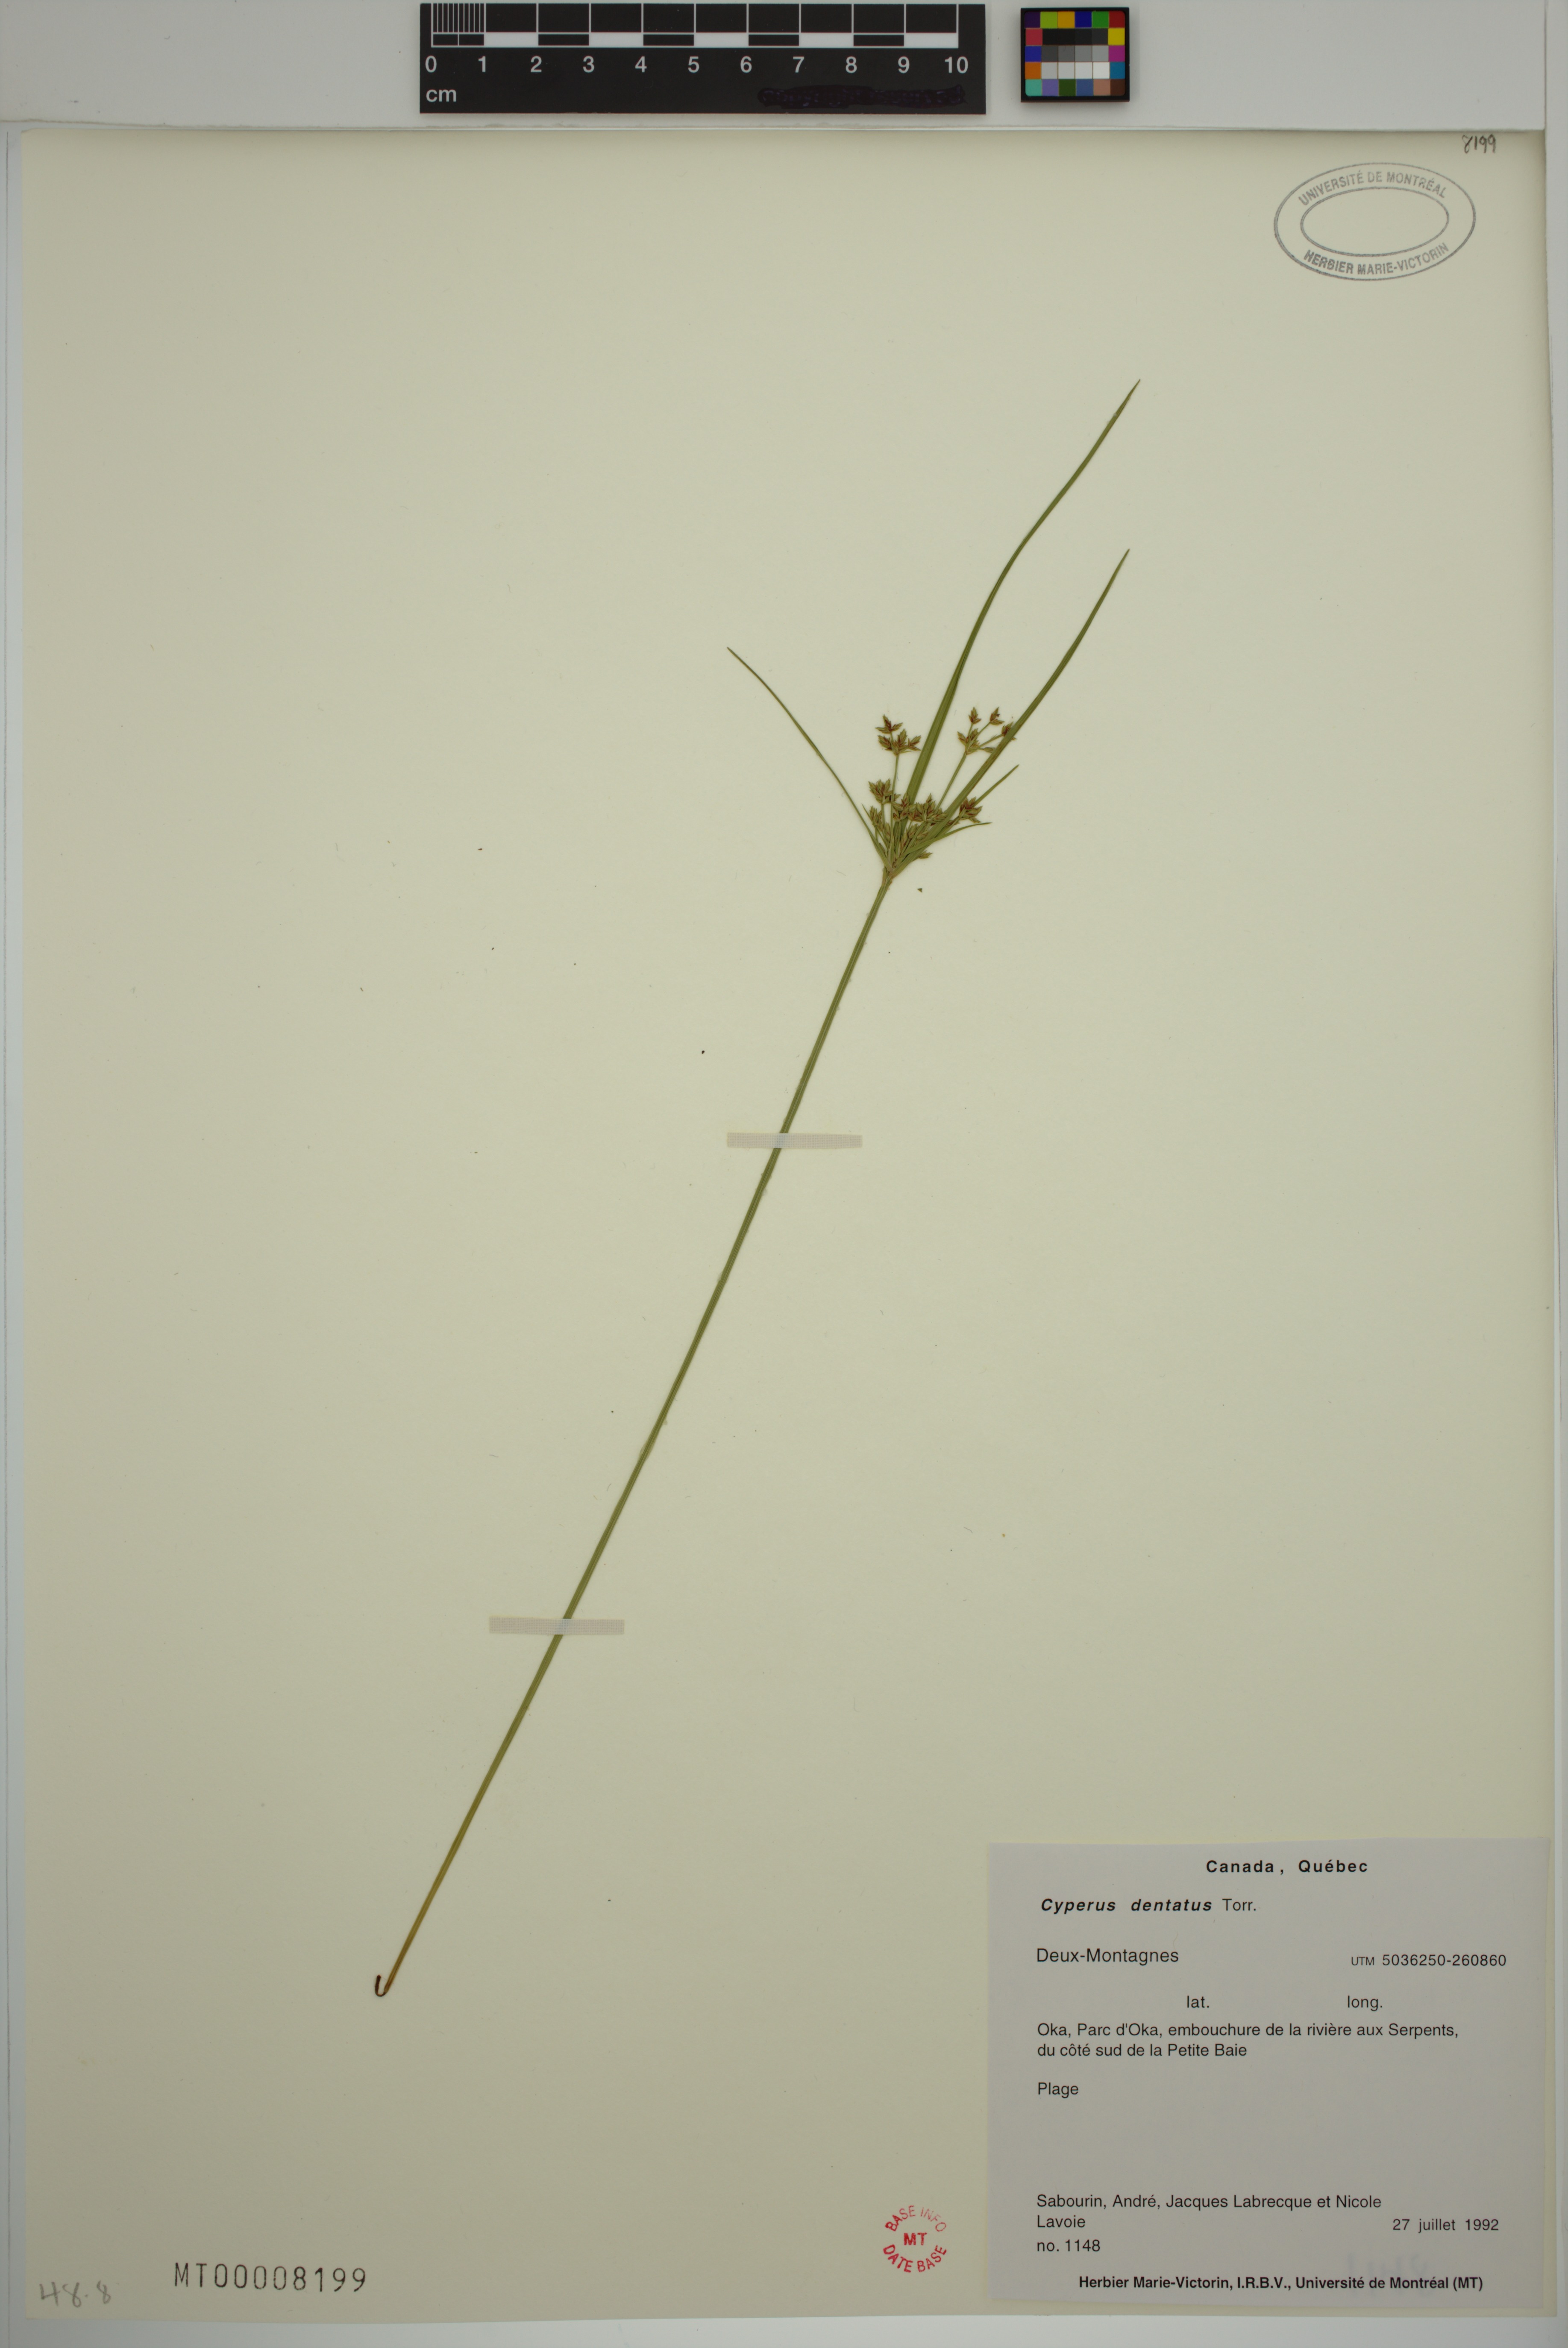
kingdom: Plantae
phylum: Tracheophyta
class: Liliopsida
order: Poales
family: Cyperaceae
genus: Cyperus
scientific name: Cyperus dentatus
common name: Dentate umbrella sedge
